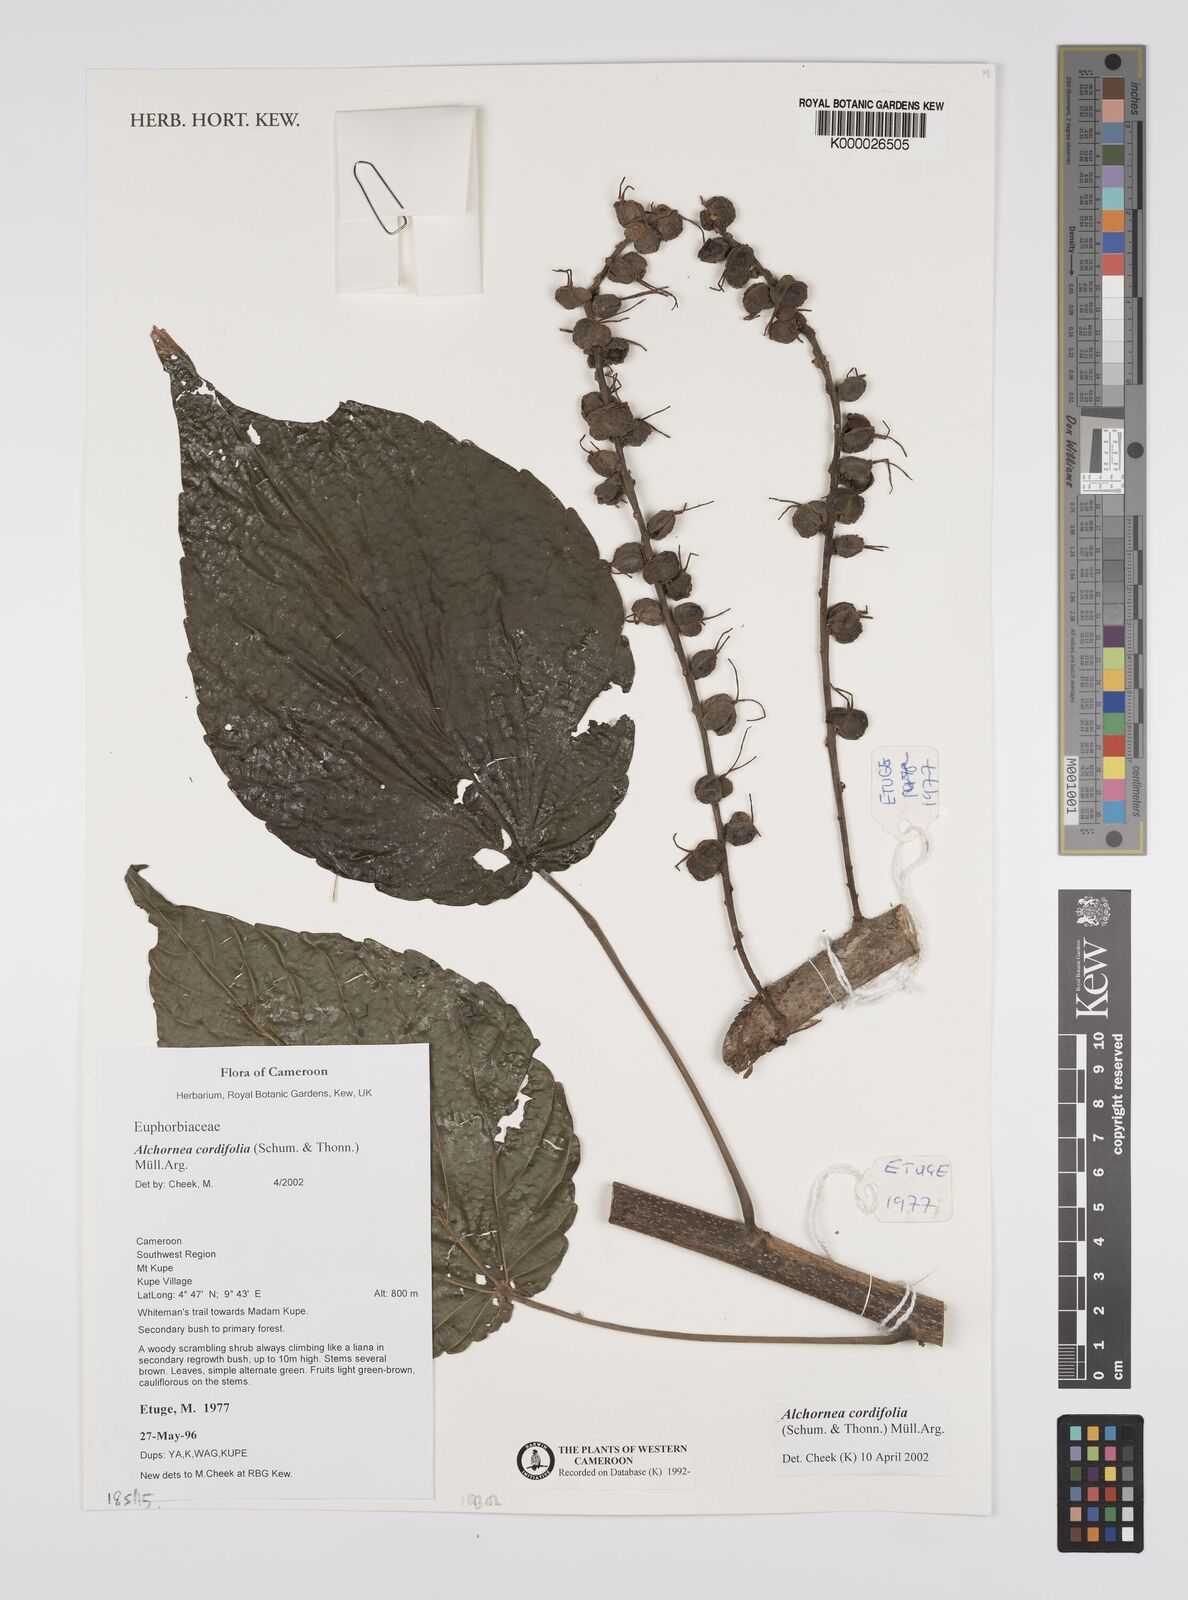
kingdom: Plantae
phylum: Tracheophyta
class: Magnoliopsida
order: Malpighiales
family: Euphorbiaceae
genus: Alchornea
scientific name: Alchornea
